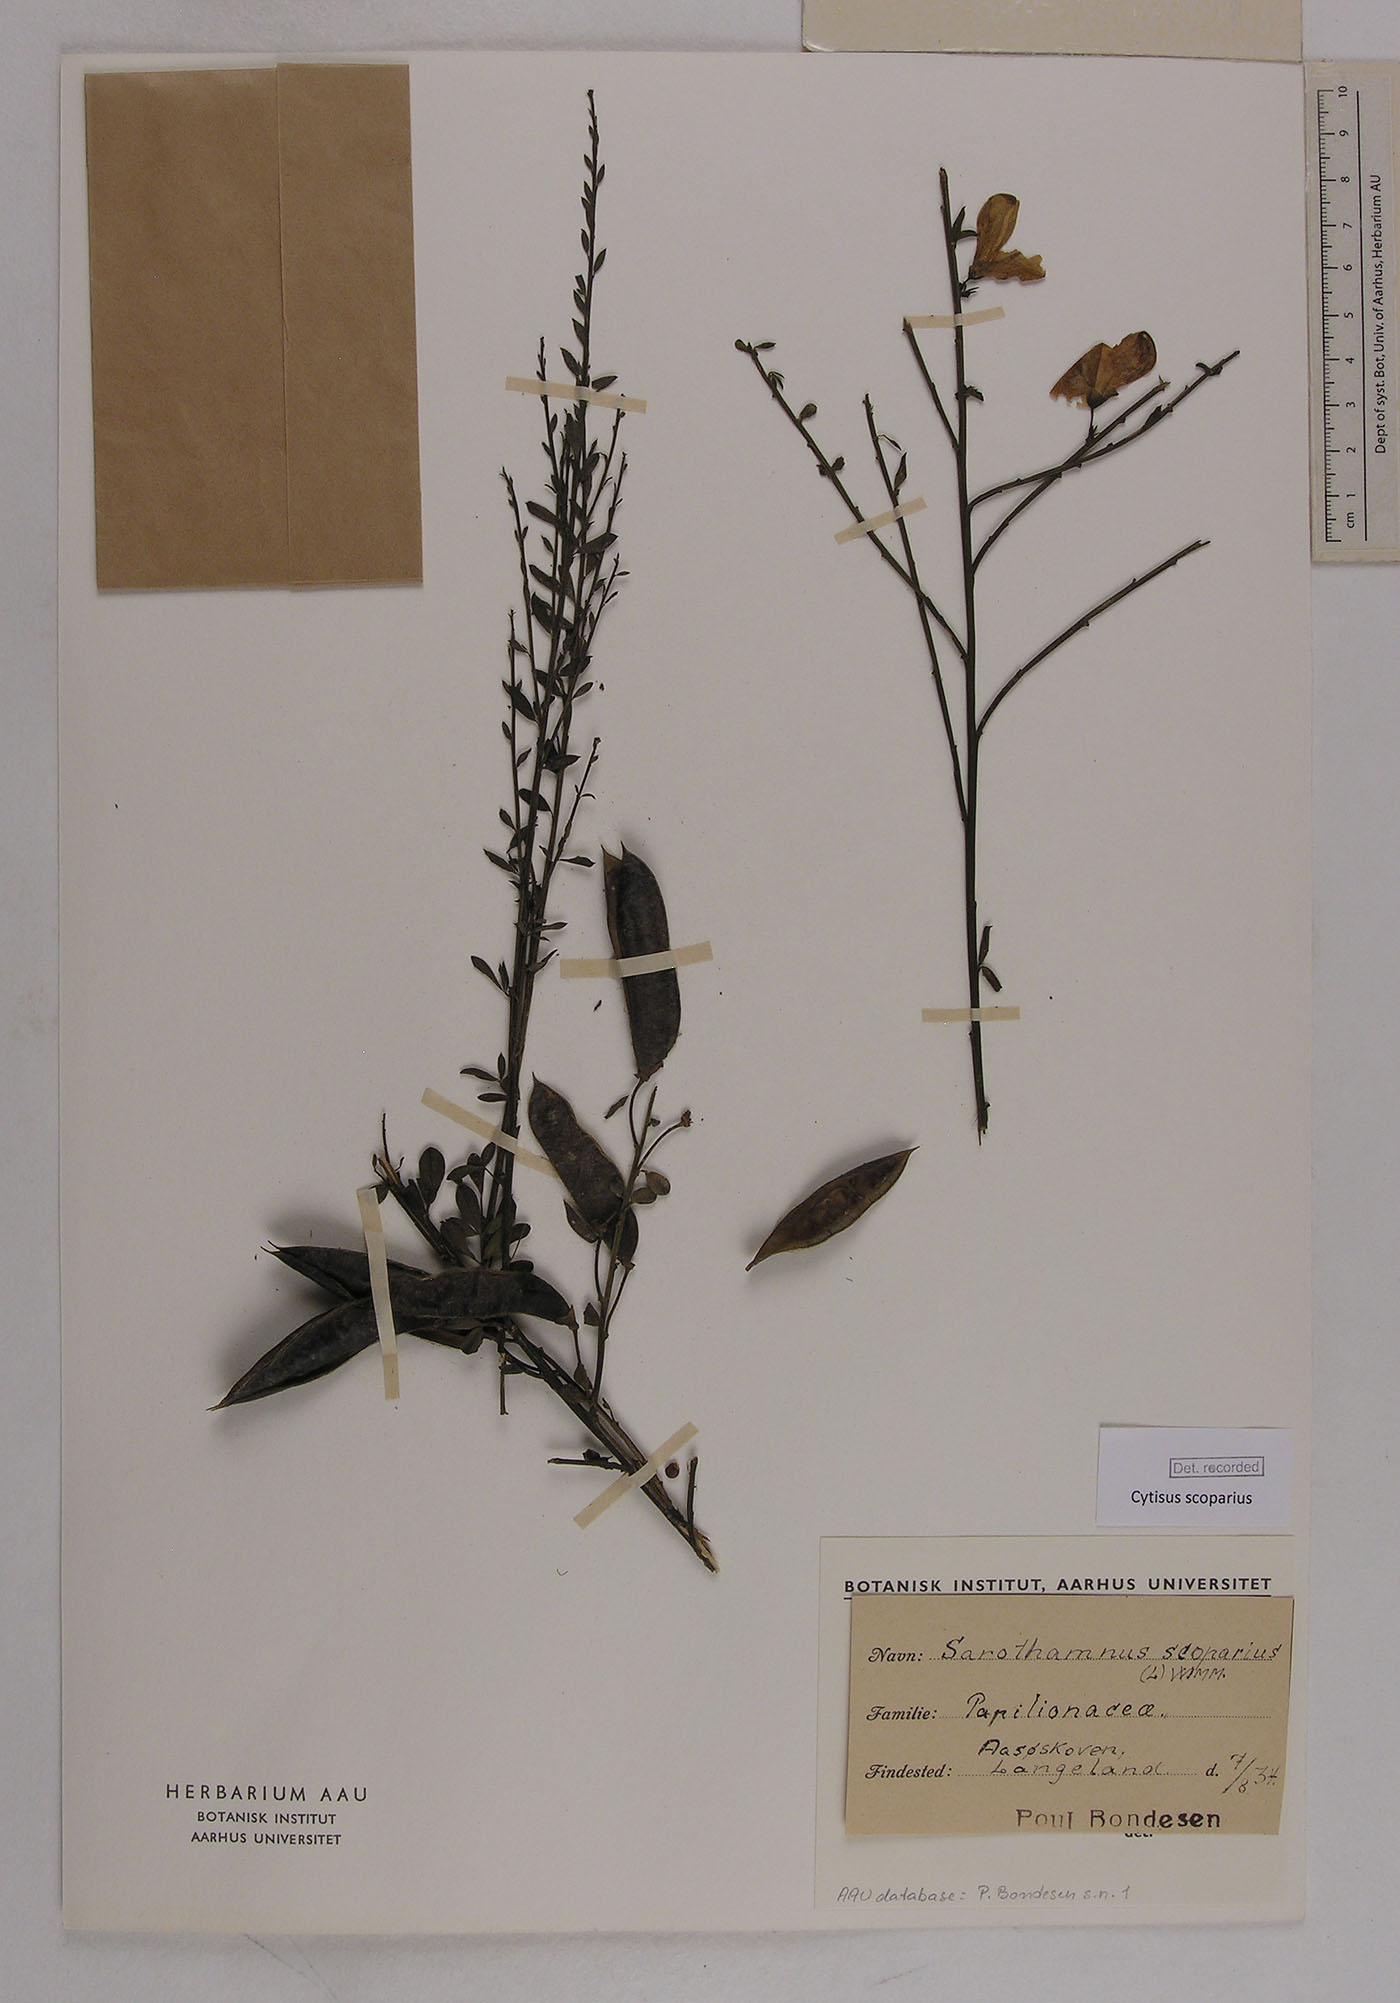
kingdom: Plantae
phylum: Tracheophyta
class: Magnoliopsida
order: Fabales
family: Fabaceae
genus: Cytisus
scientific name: Cytisus scoparius
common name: Scotch broom
